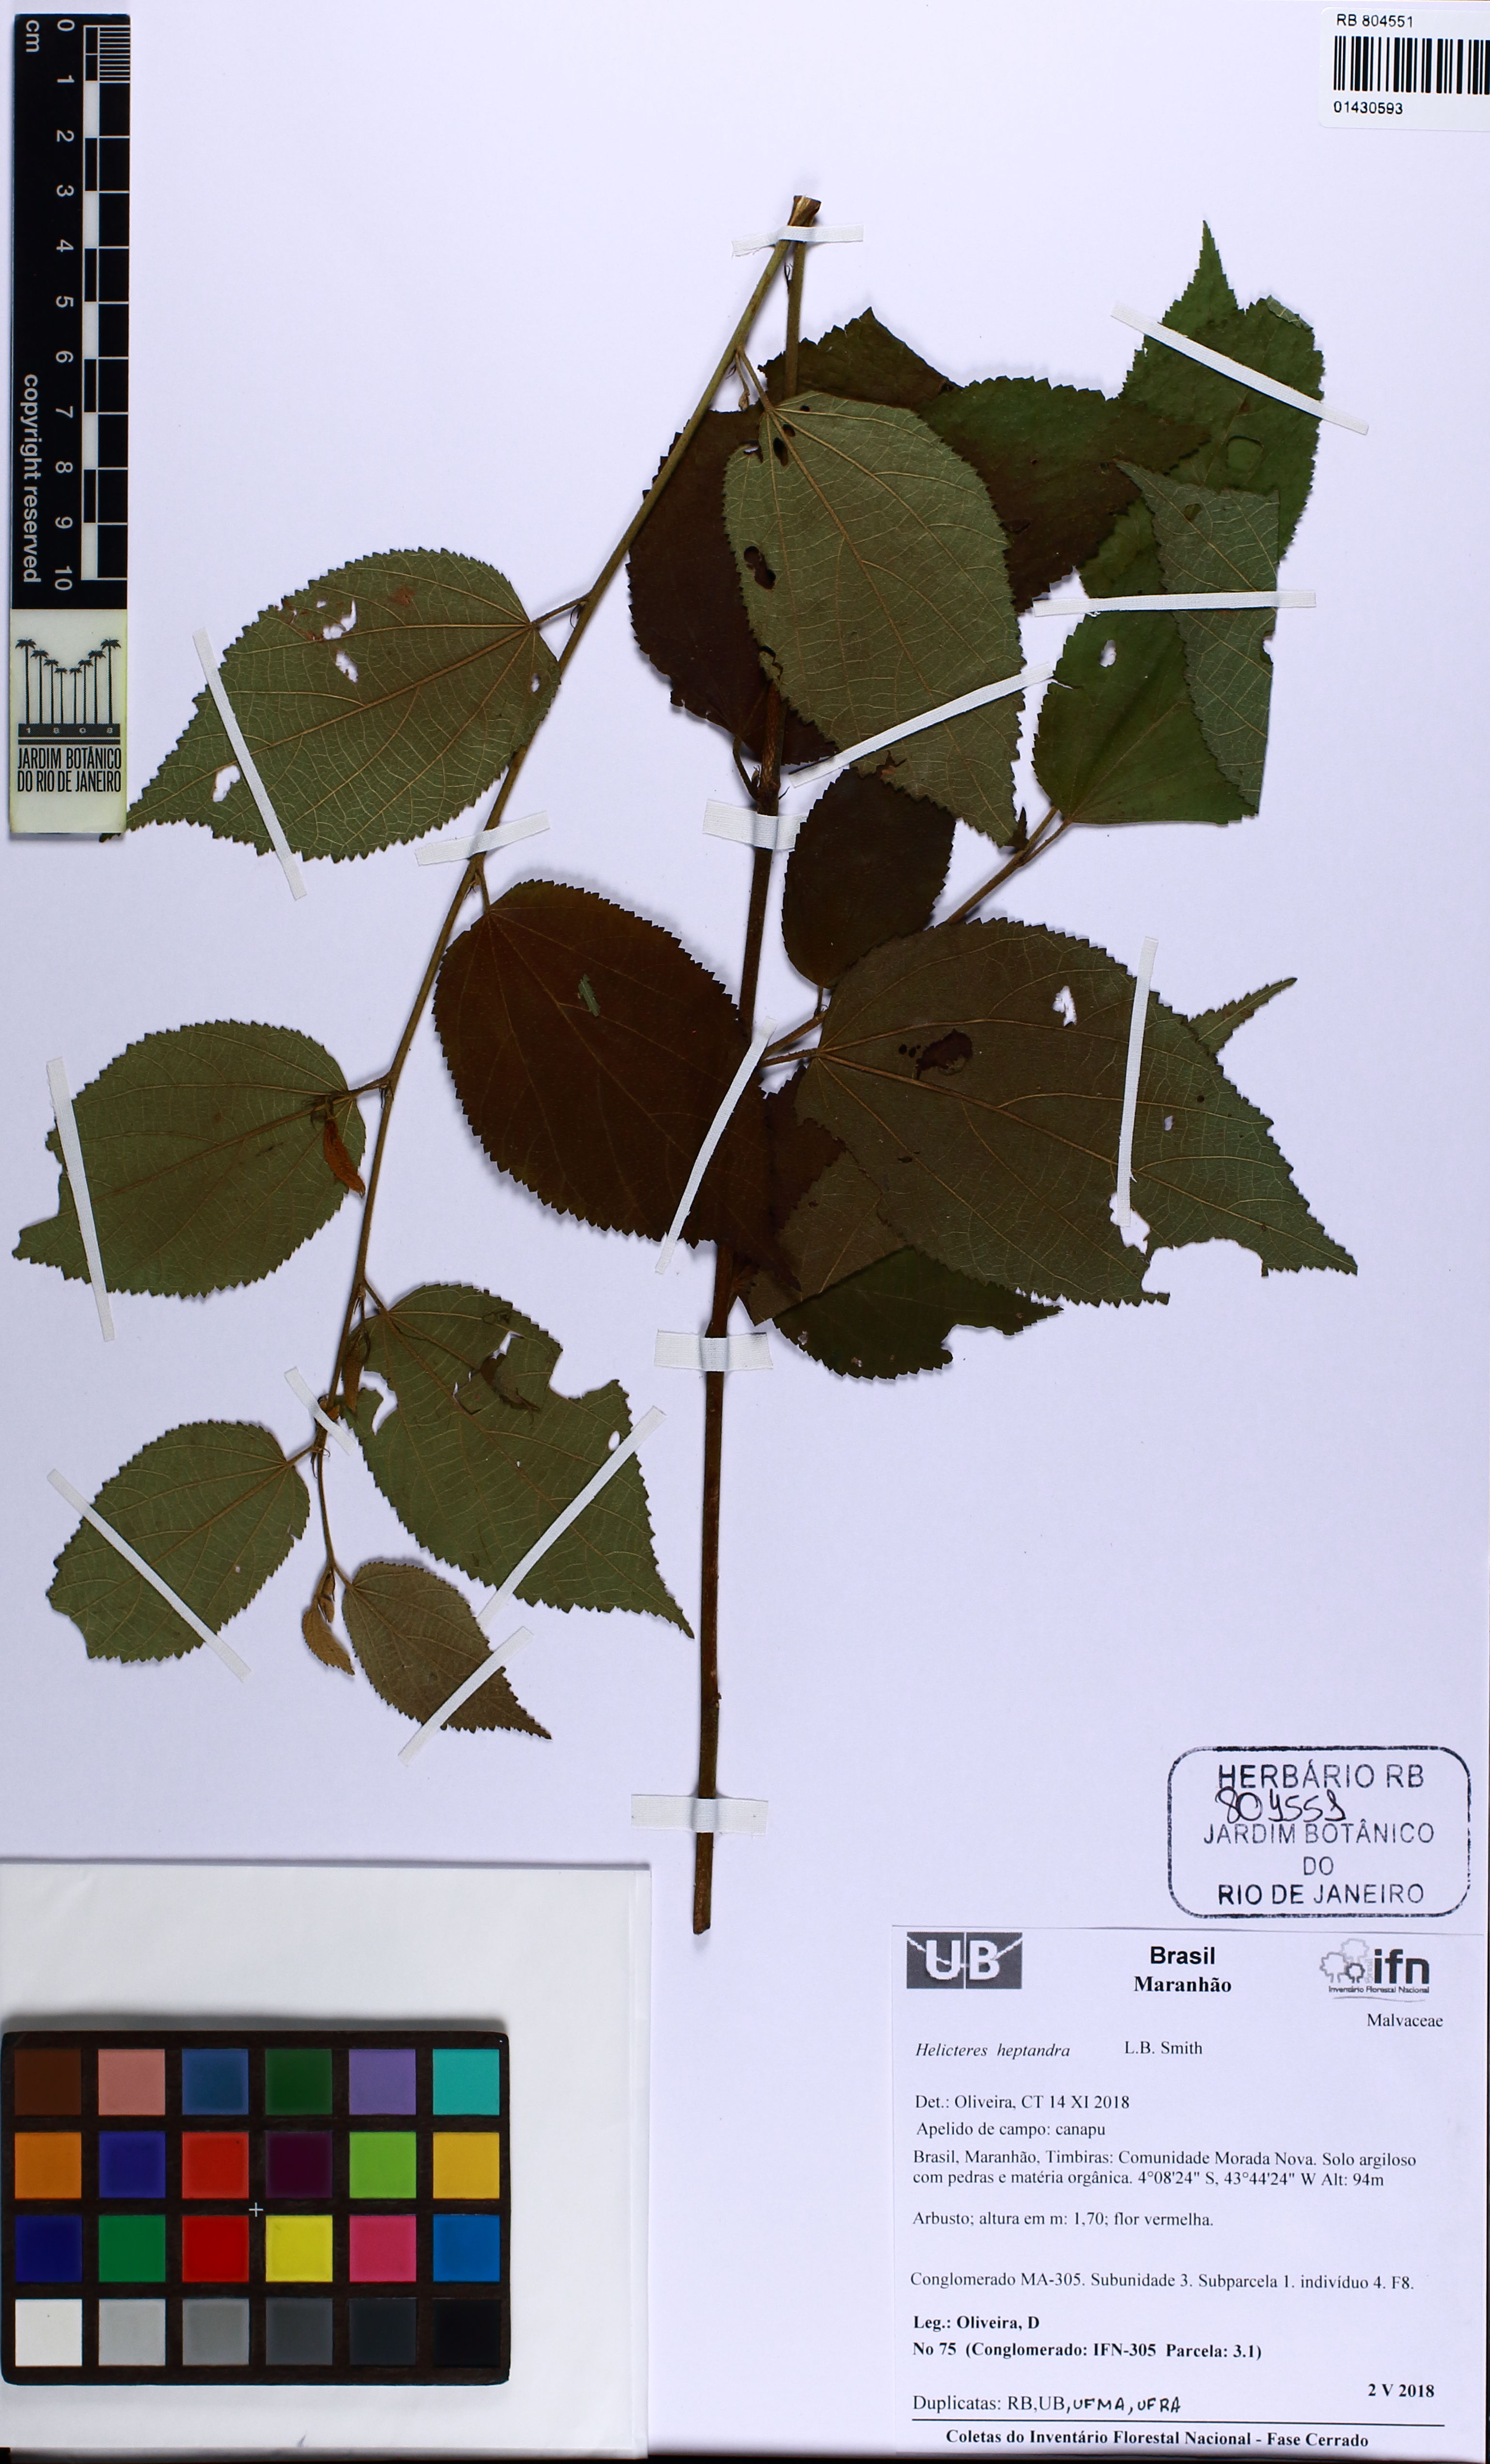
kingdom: Plantae
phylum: Tracheophyta
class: Magnoliopsida
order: Malvales
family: Malvaceae
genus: Helicteres
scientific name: Helicteres heptandra
